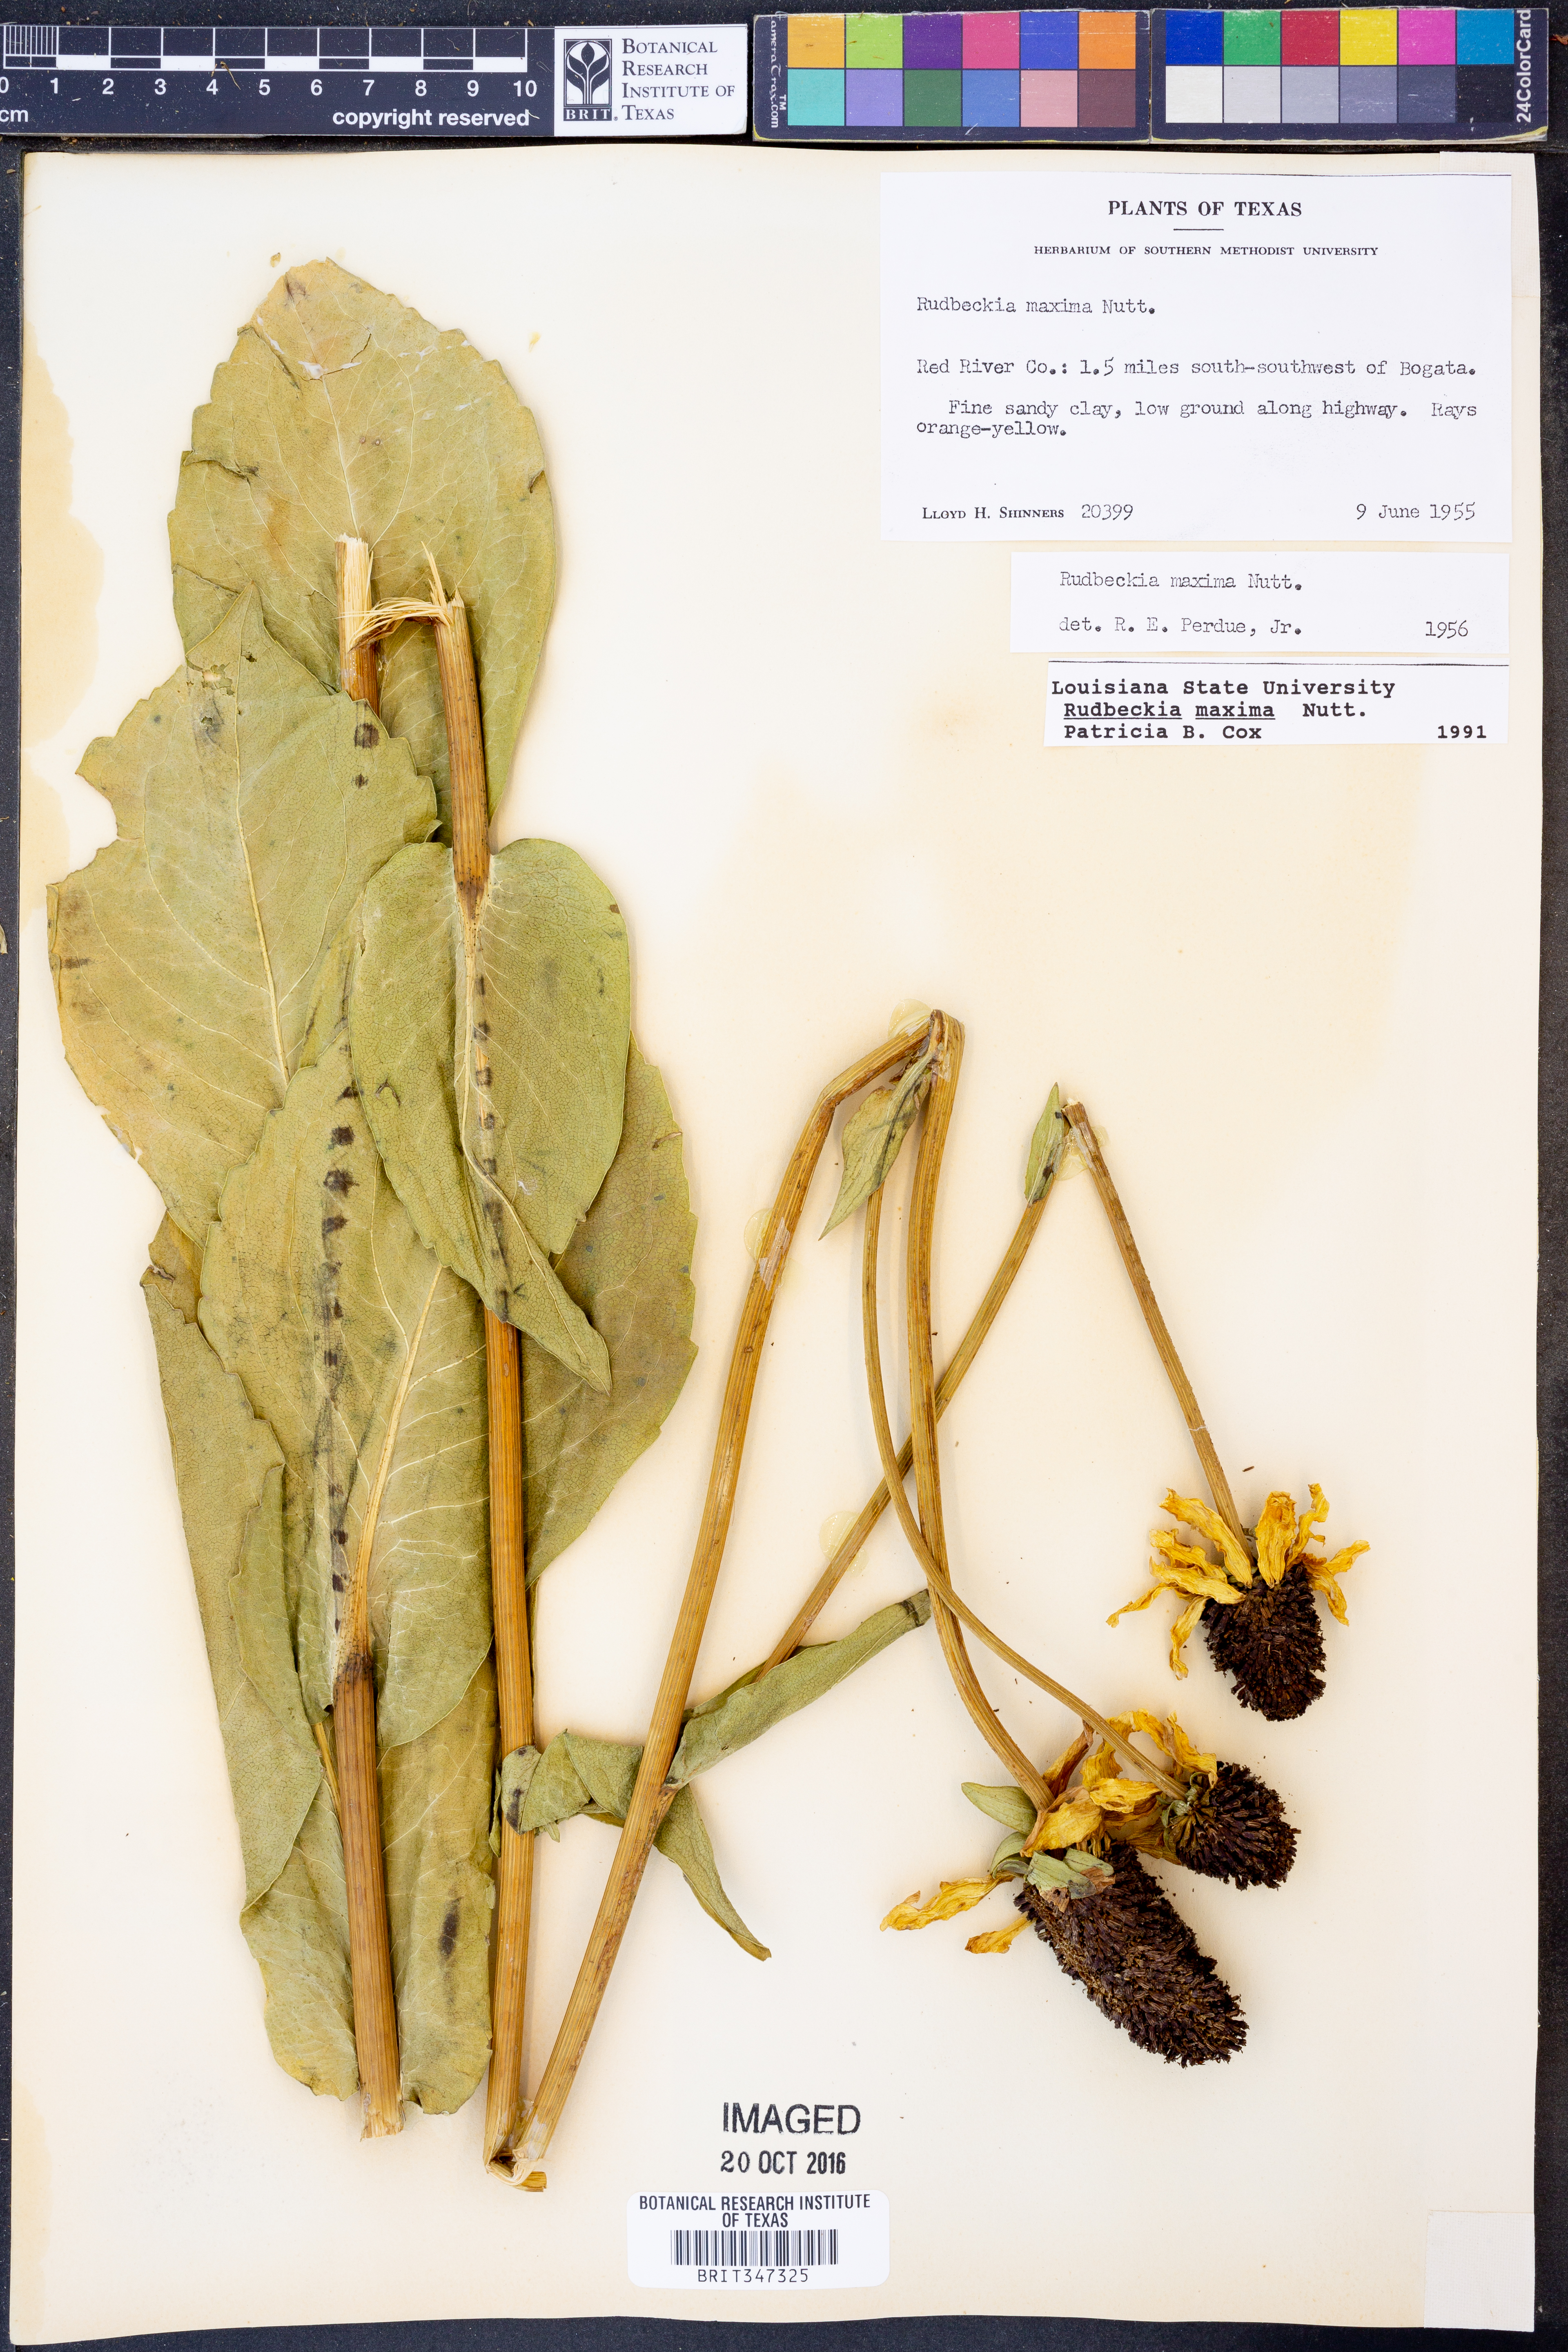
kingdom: Plantae
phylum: Tracheophyta
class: Magnoliopsida
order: Asterales
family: Asteraceae
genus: Rudbeckia
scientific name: Rudbeckia maxima
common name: Cabbage coneflower
